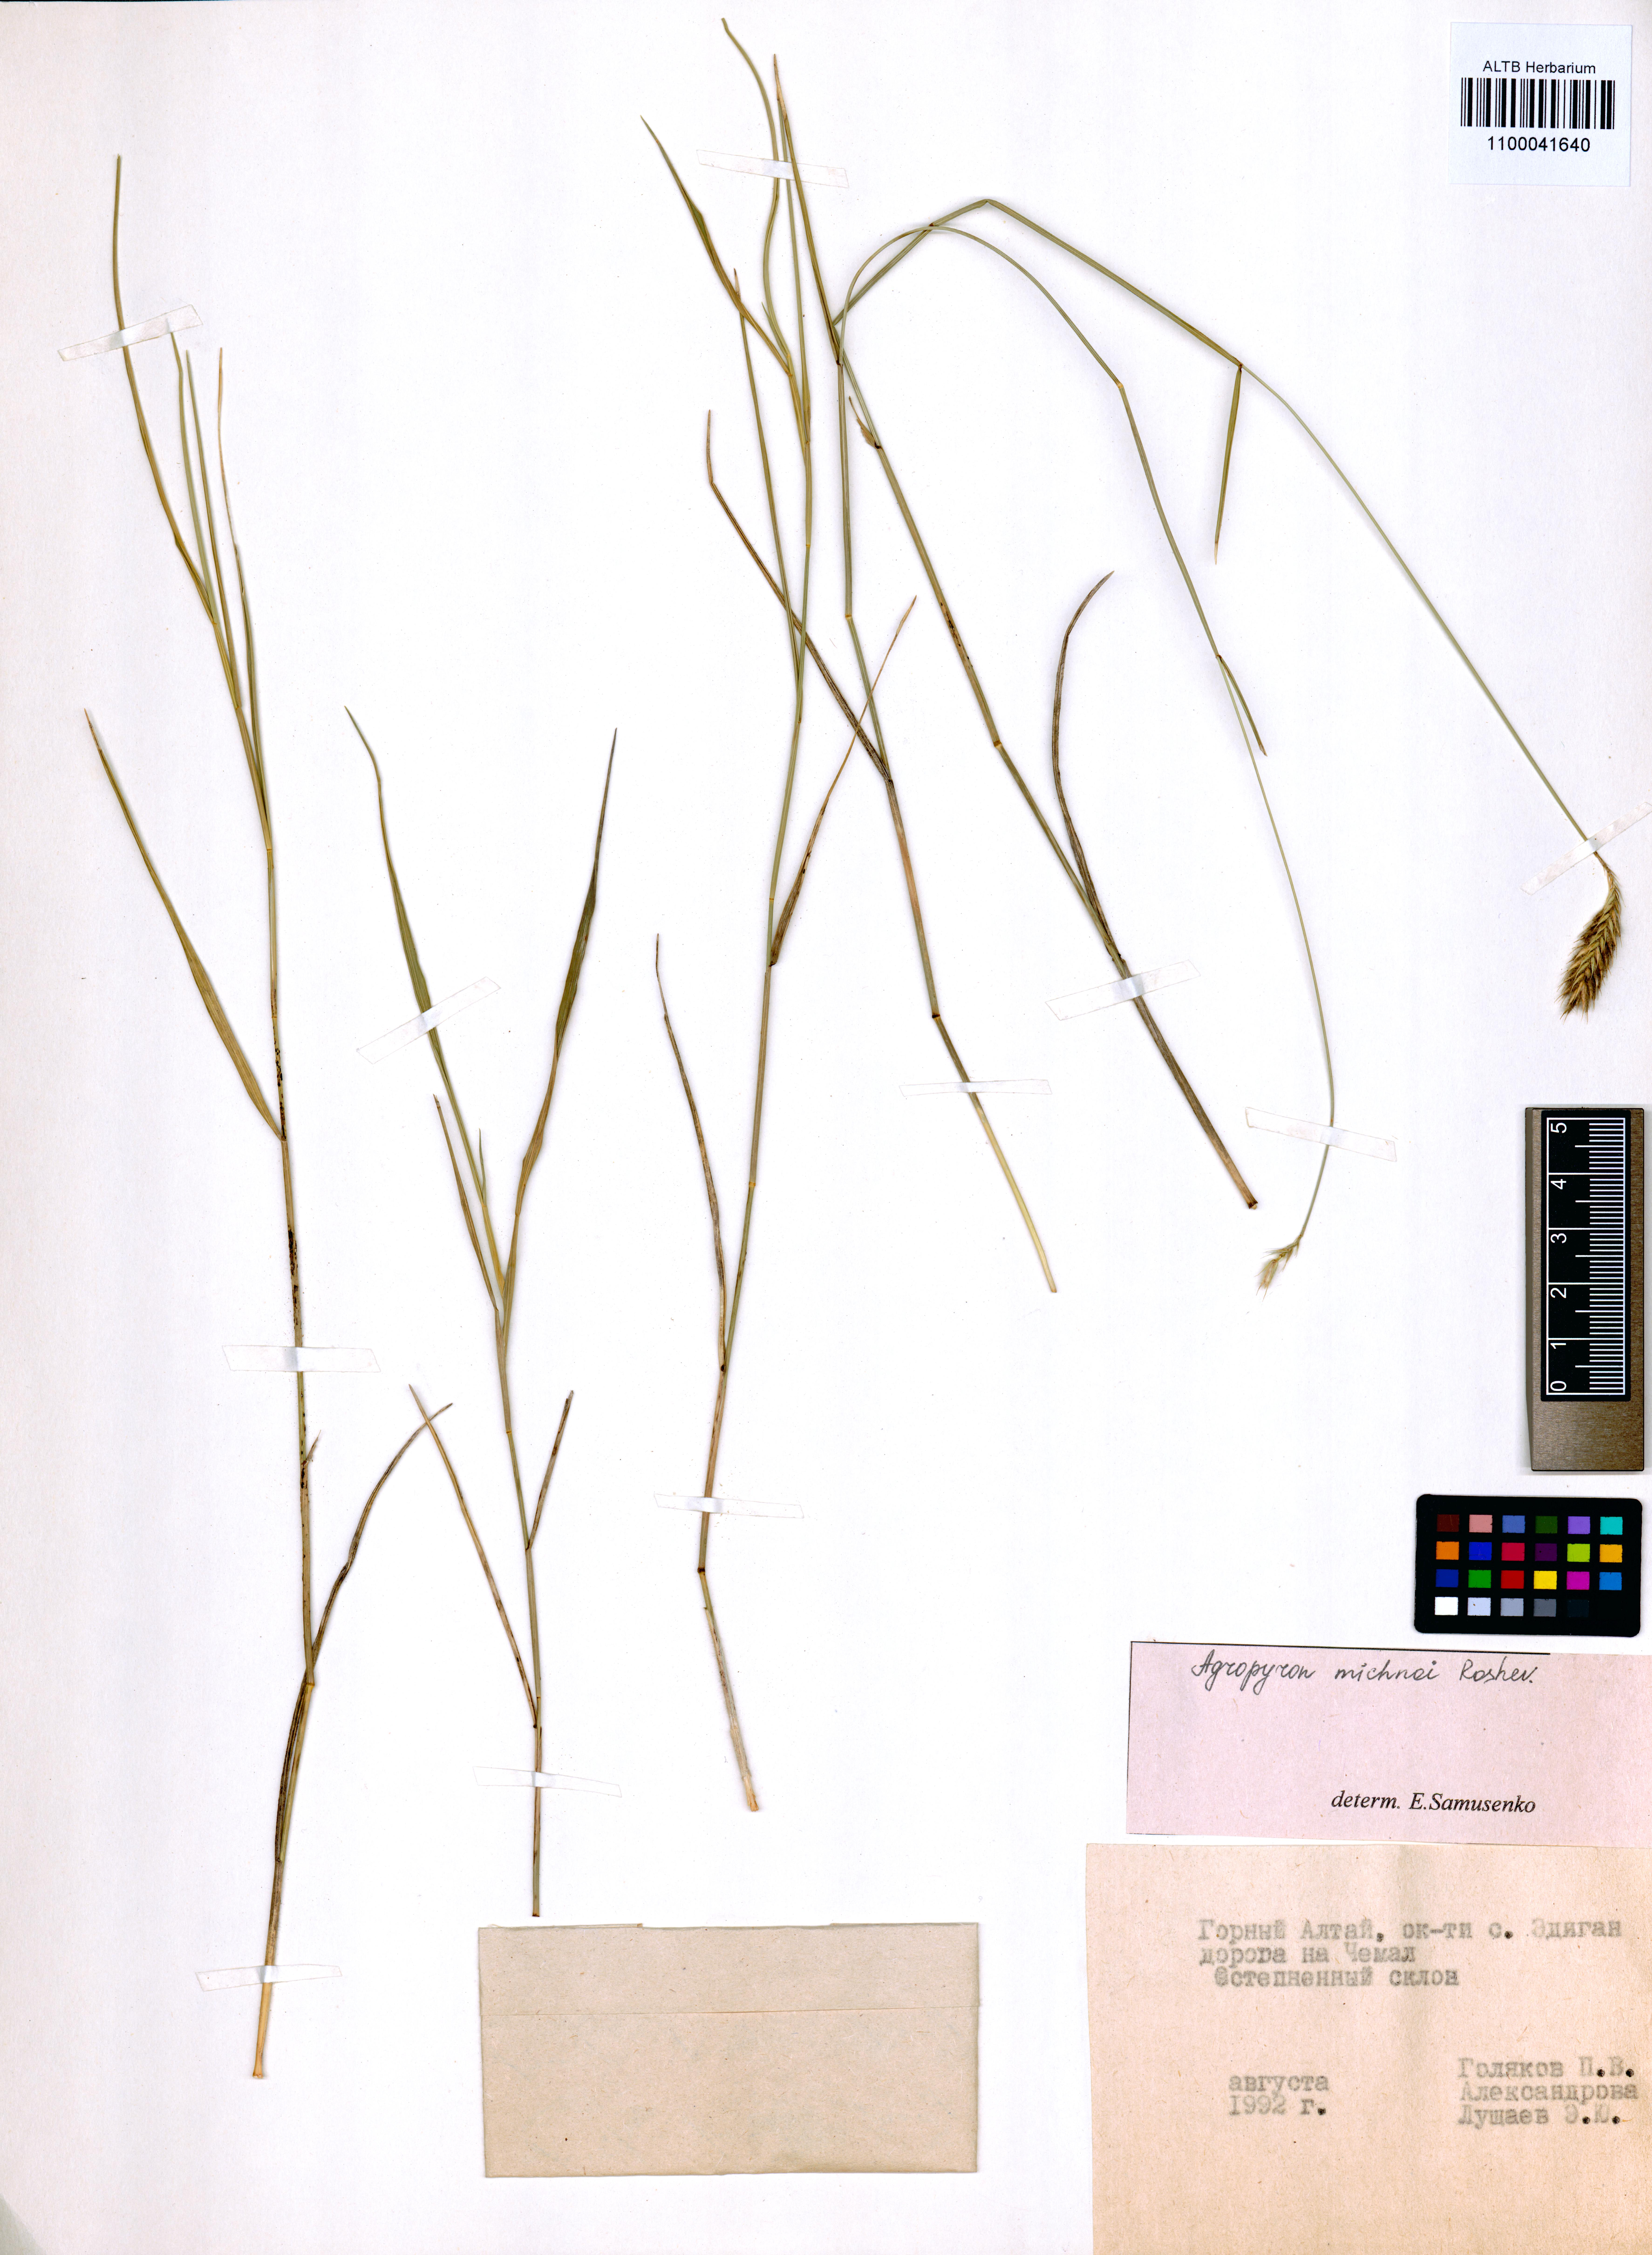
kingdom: Plantae
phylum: Tracheophyta
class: Liliopsida
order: Poales
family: Poaceae
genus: Agropyron
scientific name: Agropyron michnoi
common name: Michno's wheatgrass
